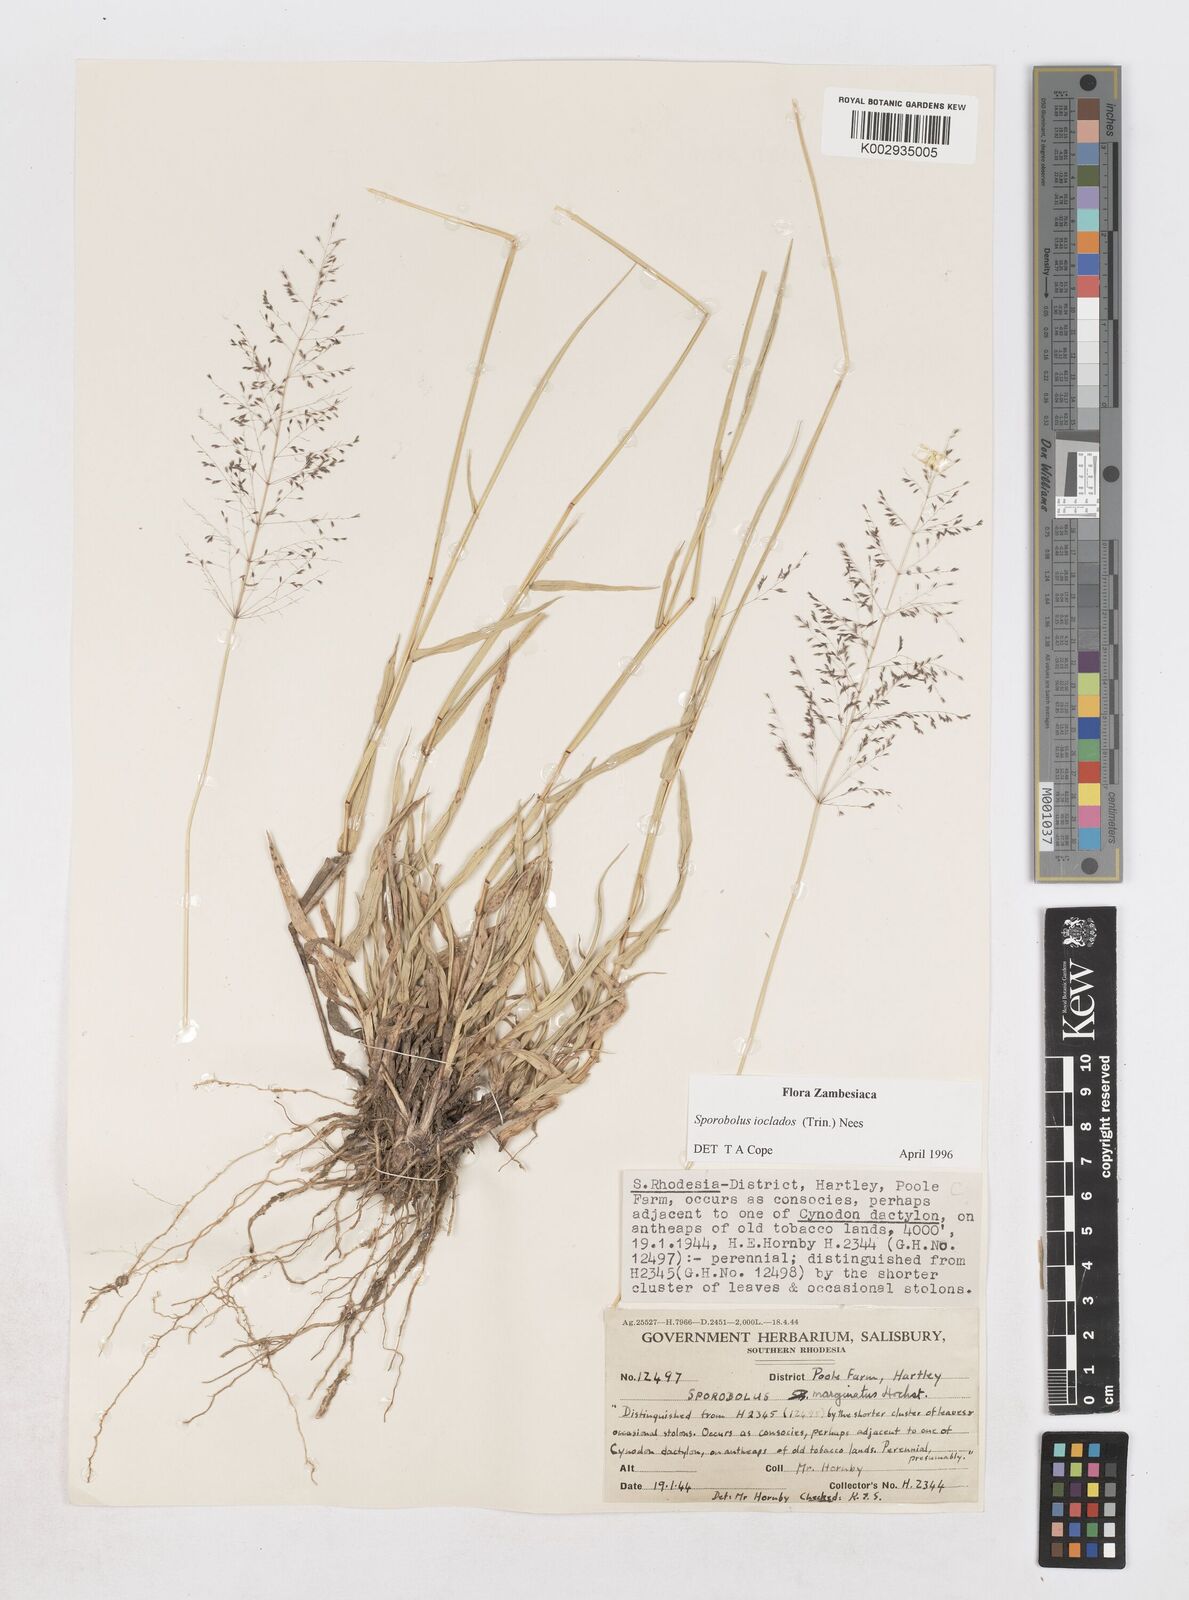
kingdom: Plantae
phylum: Tracheophyta
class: Liliopsida
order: Poales
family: Poaceae
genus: Sporobolus
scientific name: Sporobolus ioclados
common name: Pan dropseed
